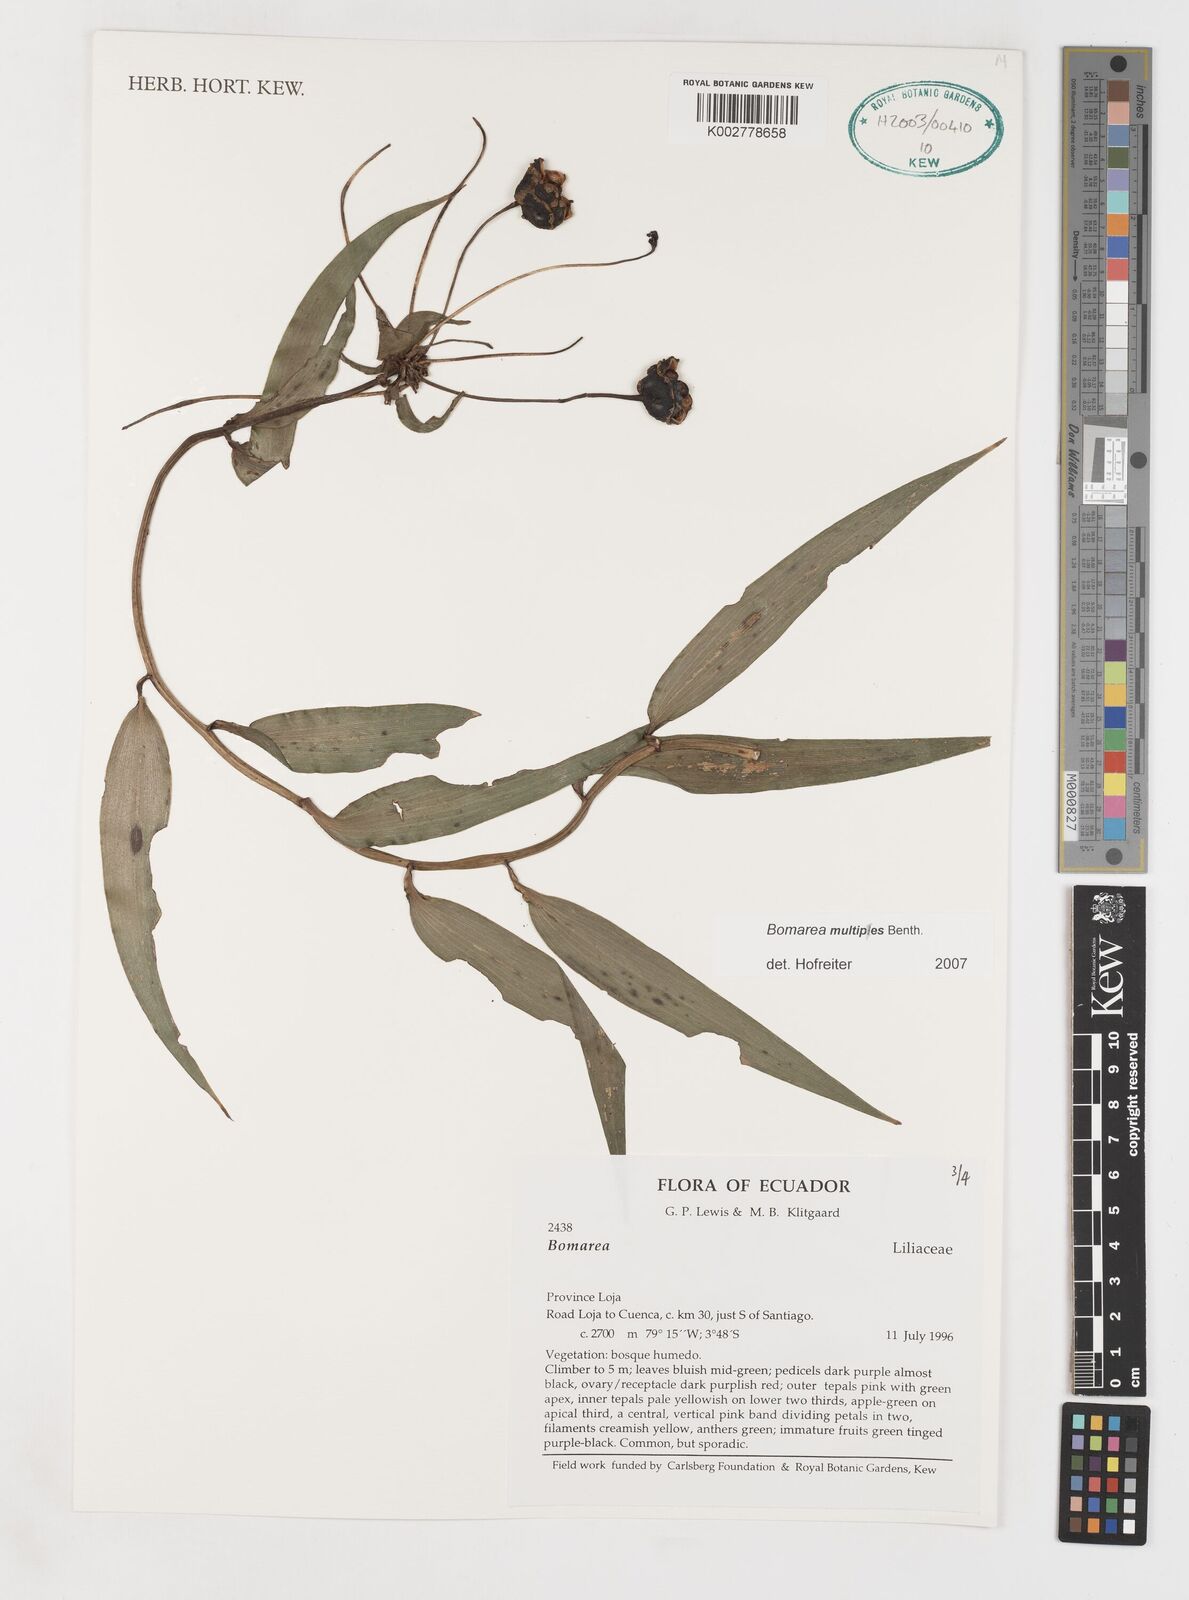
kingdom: Plantae
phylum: Tracheophyta
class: Liliopsida
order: Liliales
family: Alstroemeriaceae
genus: Bomarea
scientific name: Bomarea multipes
